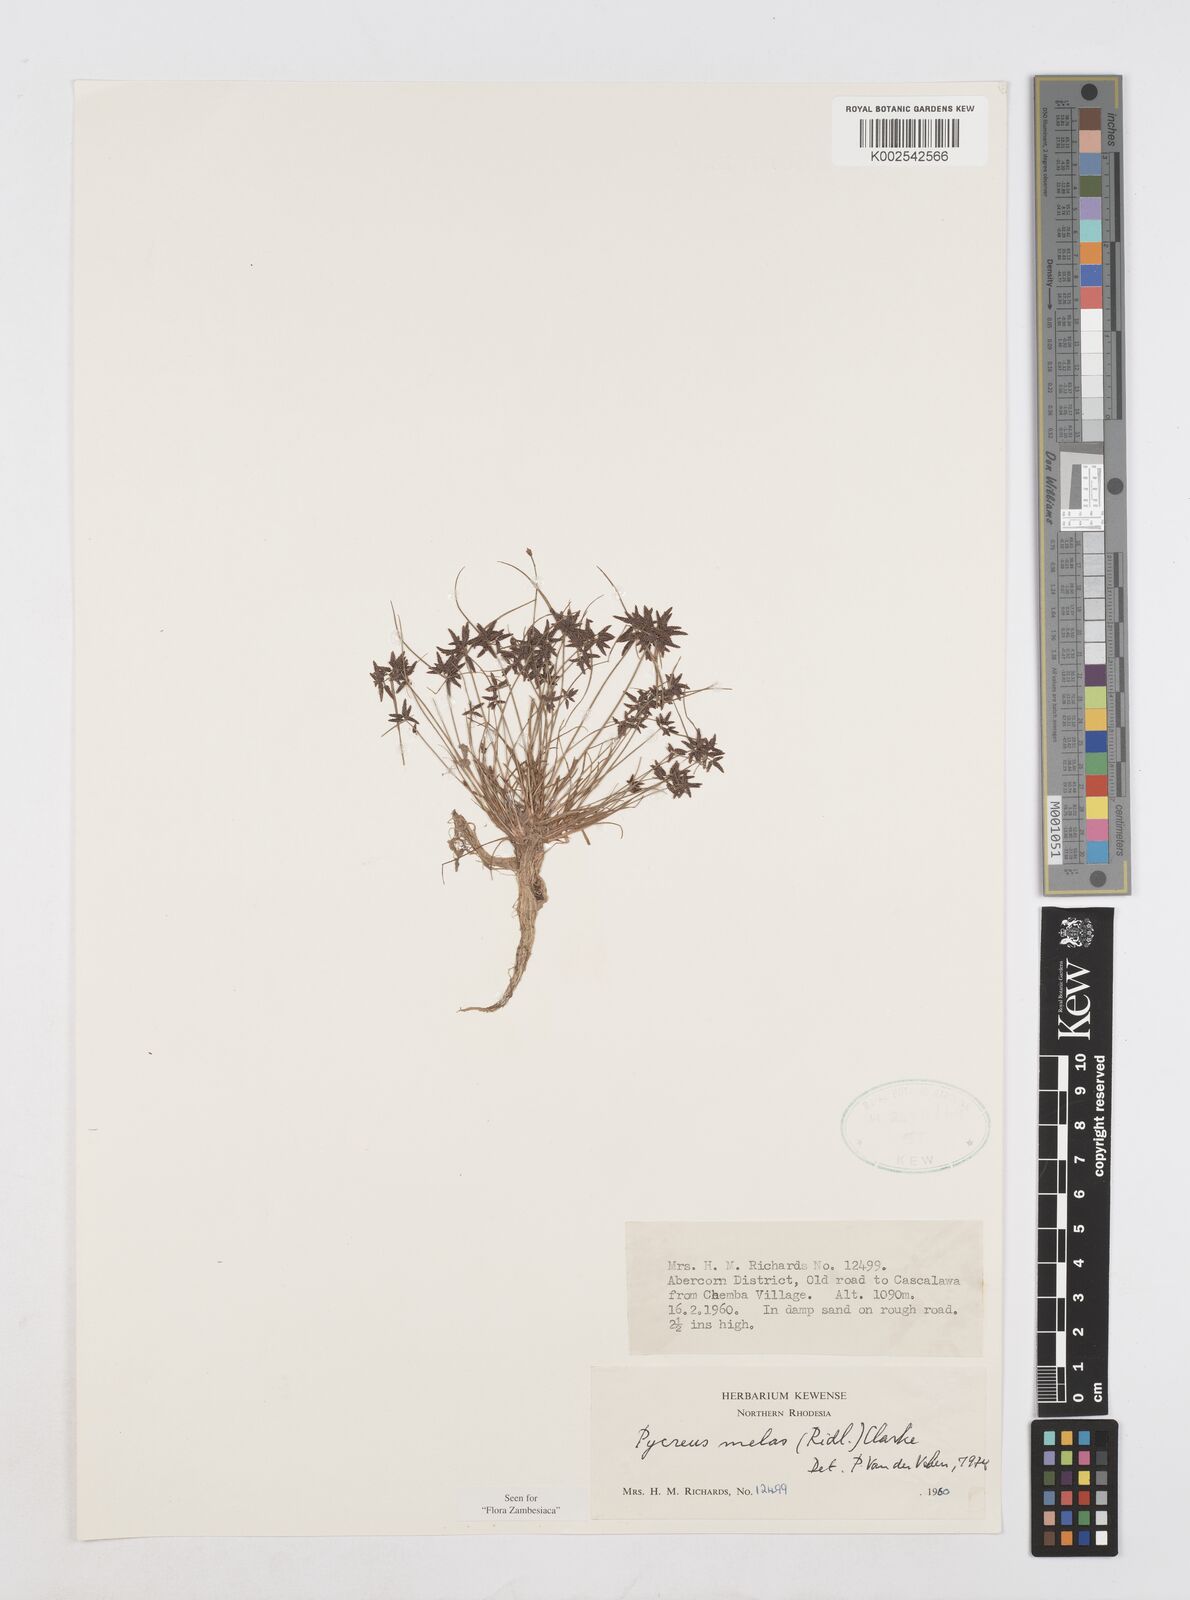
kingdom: Plantae
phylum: Tracheophyta
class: Liliopsida
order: Poales
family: Cyperaceae
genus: Cyperus
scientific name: Cyperus melas
